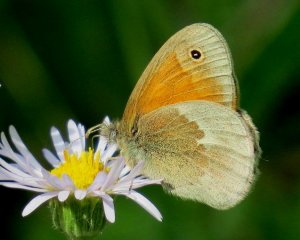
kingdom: Animalia
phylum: Arthropoda
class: Insecta
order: Lepidoptera
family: Nymphalidae
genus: Coenonympha
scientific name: Coenonympha tullia
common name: Large Heath
